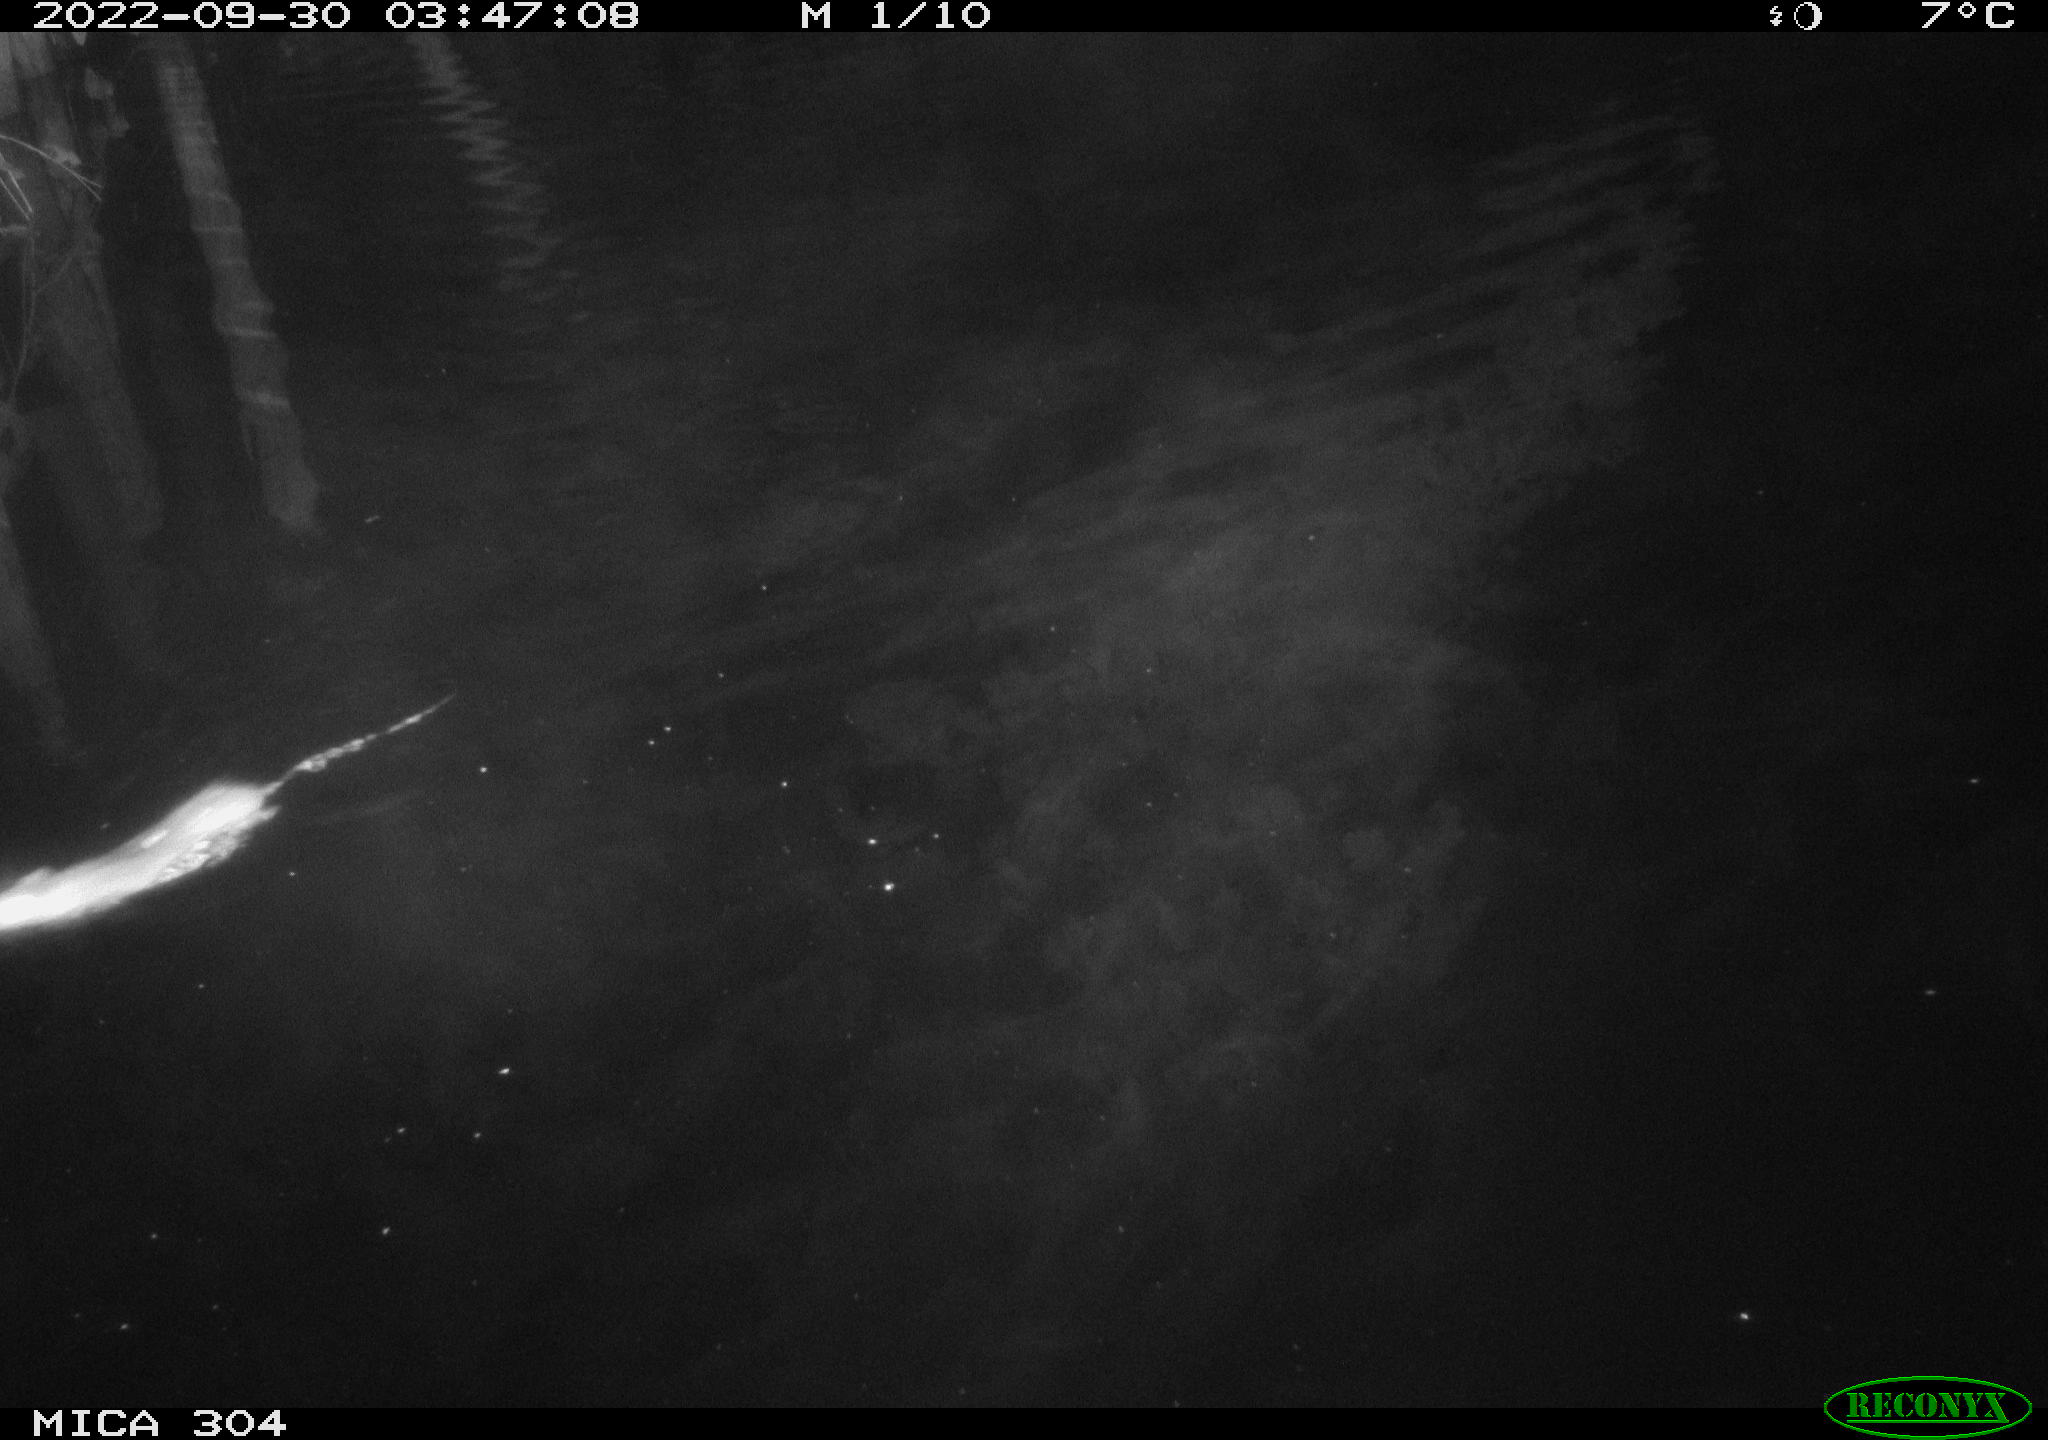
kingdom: Animalia
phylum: Chordata
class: Mammalia
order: Rodentia
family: Muridae
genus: Rattus
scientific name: Rattus norvegicus
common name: Brown rat
